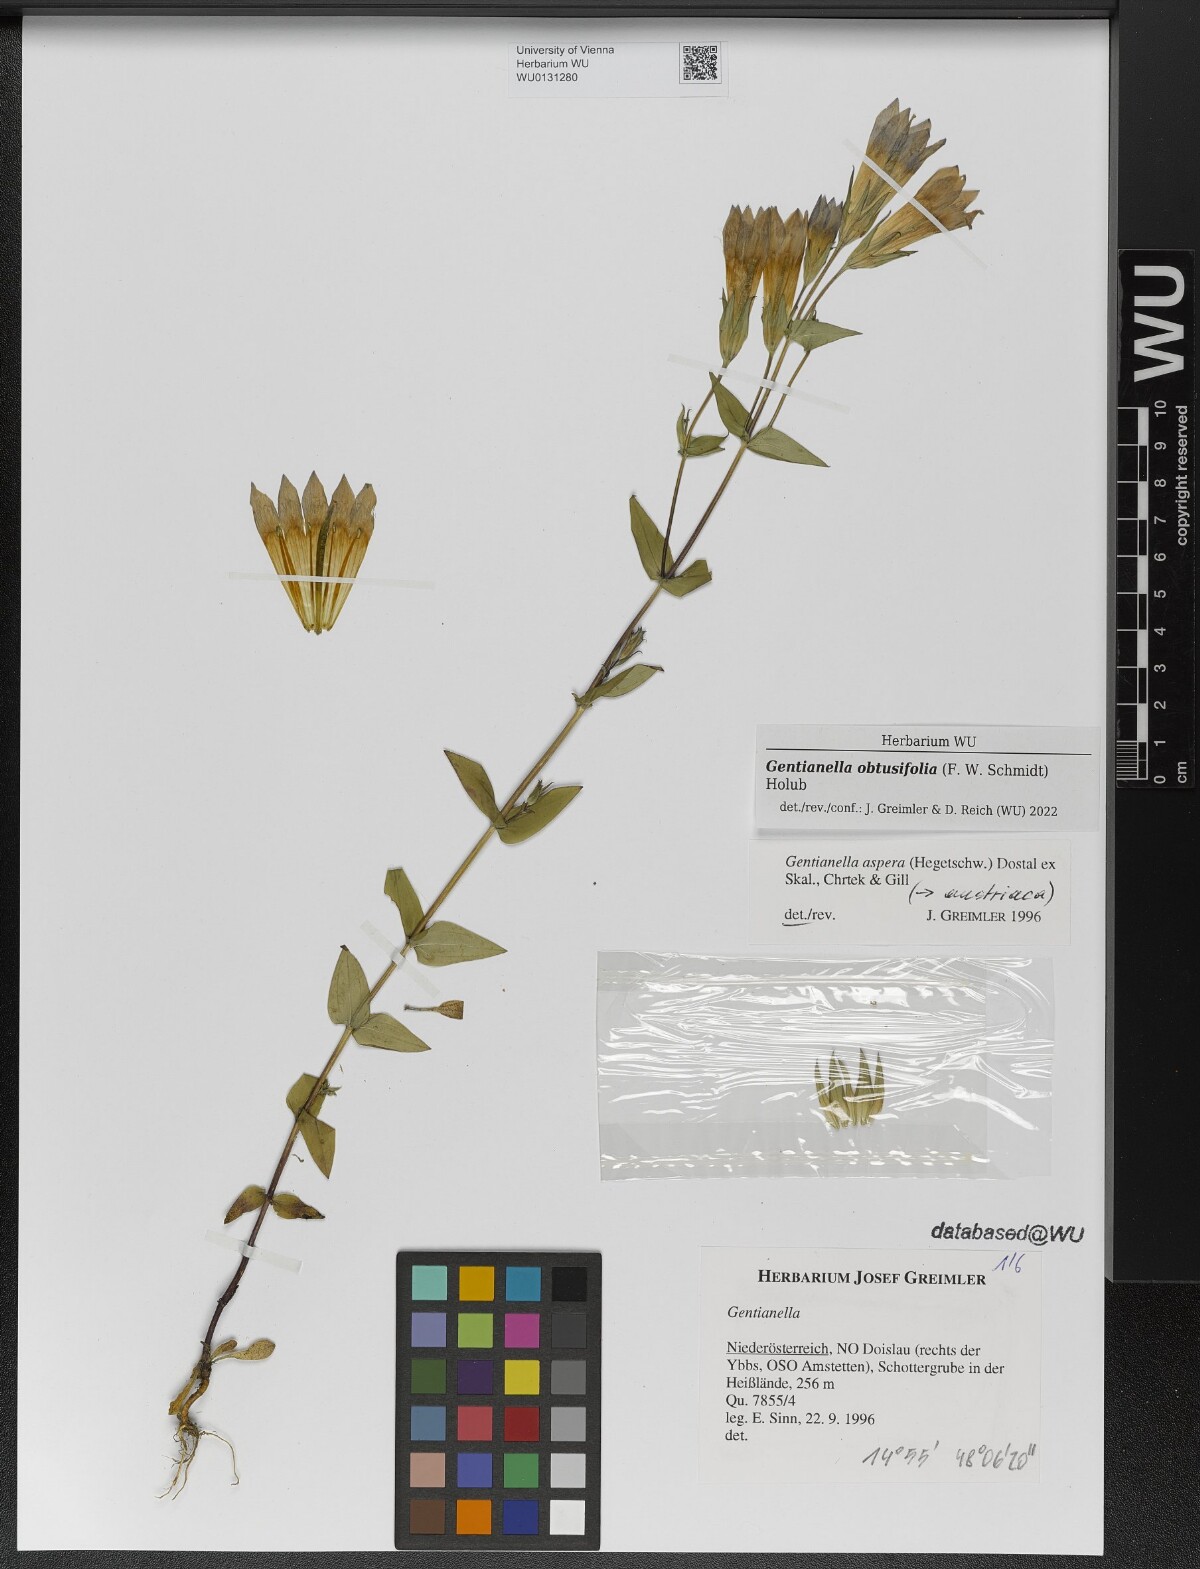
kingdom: Plantae
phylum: Tracheophyta
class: Magnoliopsida
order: Gentianales
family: Gentianaceae
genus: Gentianella
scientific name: Gentianella obtusifolia
